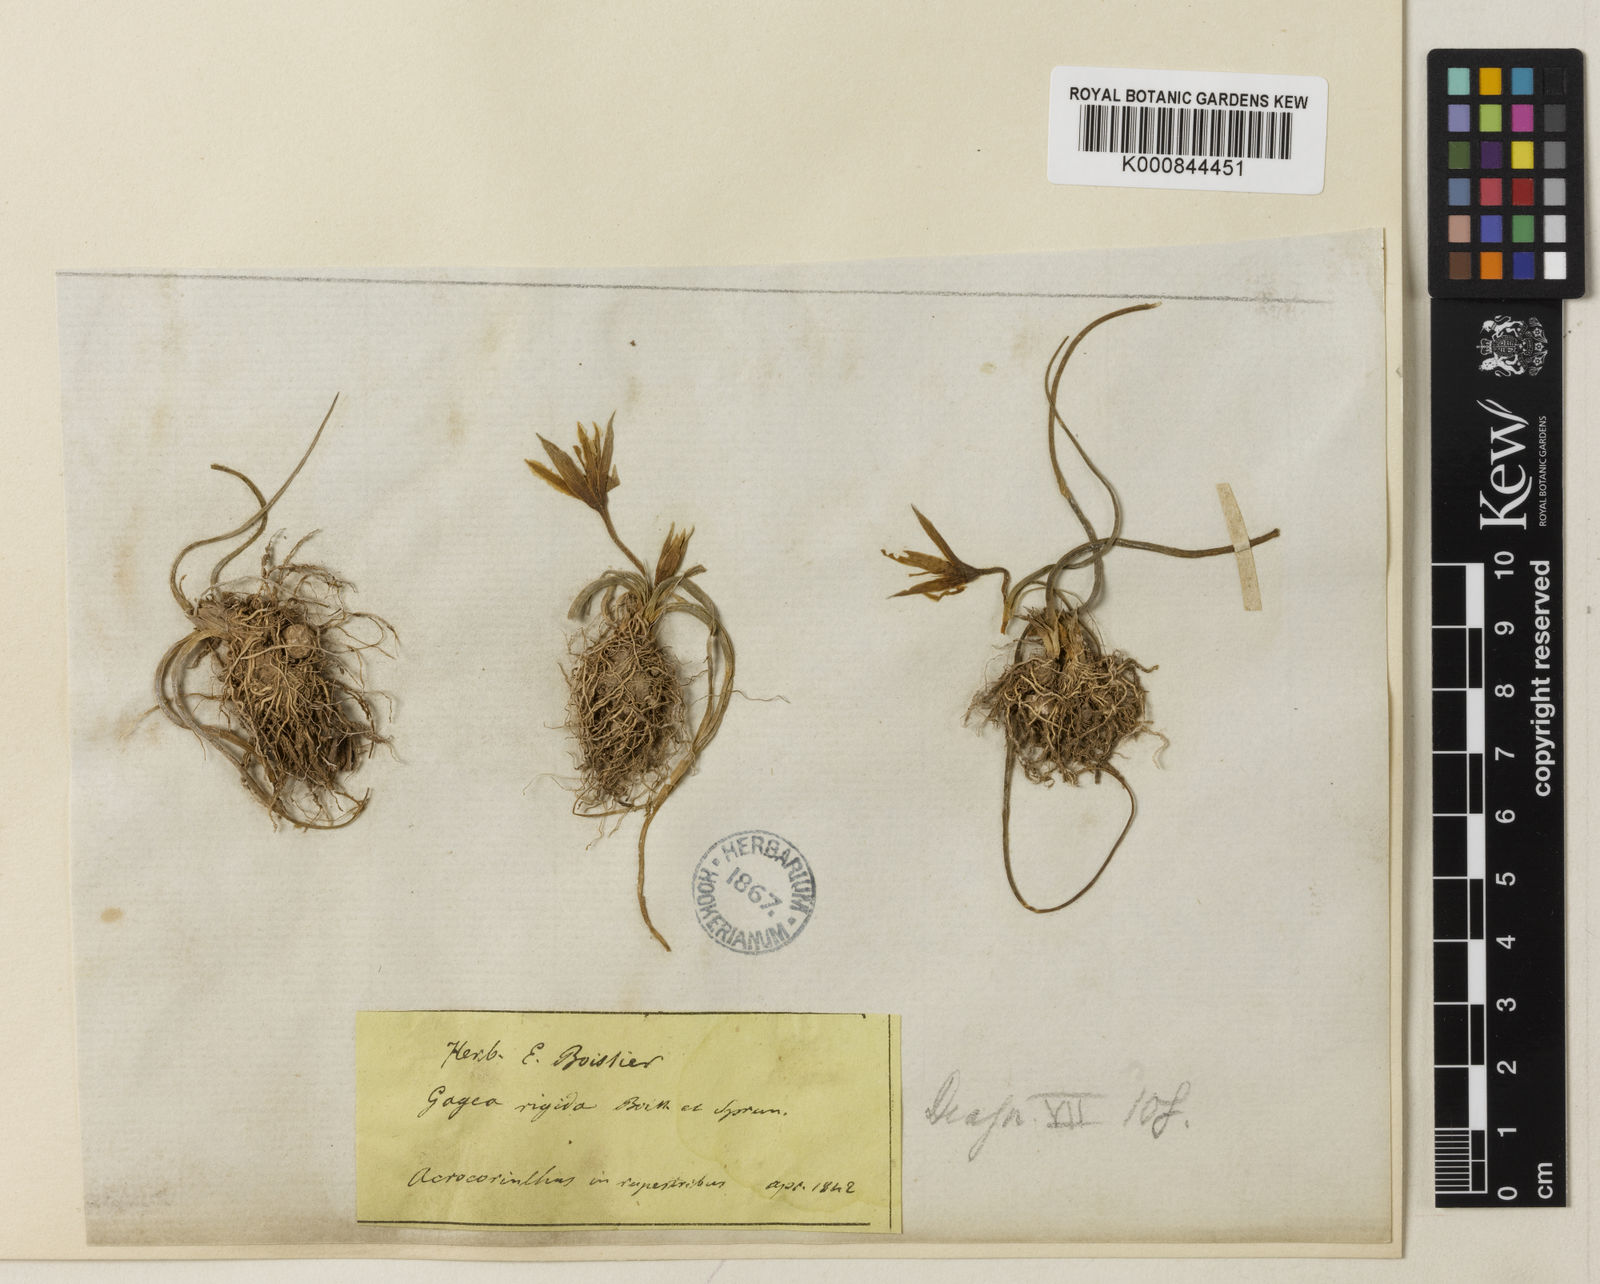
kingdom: Plantae
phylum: Tracheophyta
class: Liliopsida
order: Liliales
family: Liliaceae
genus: Gagea
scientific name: Gagea reticulata
